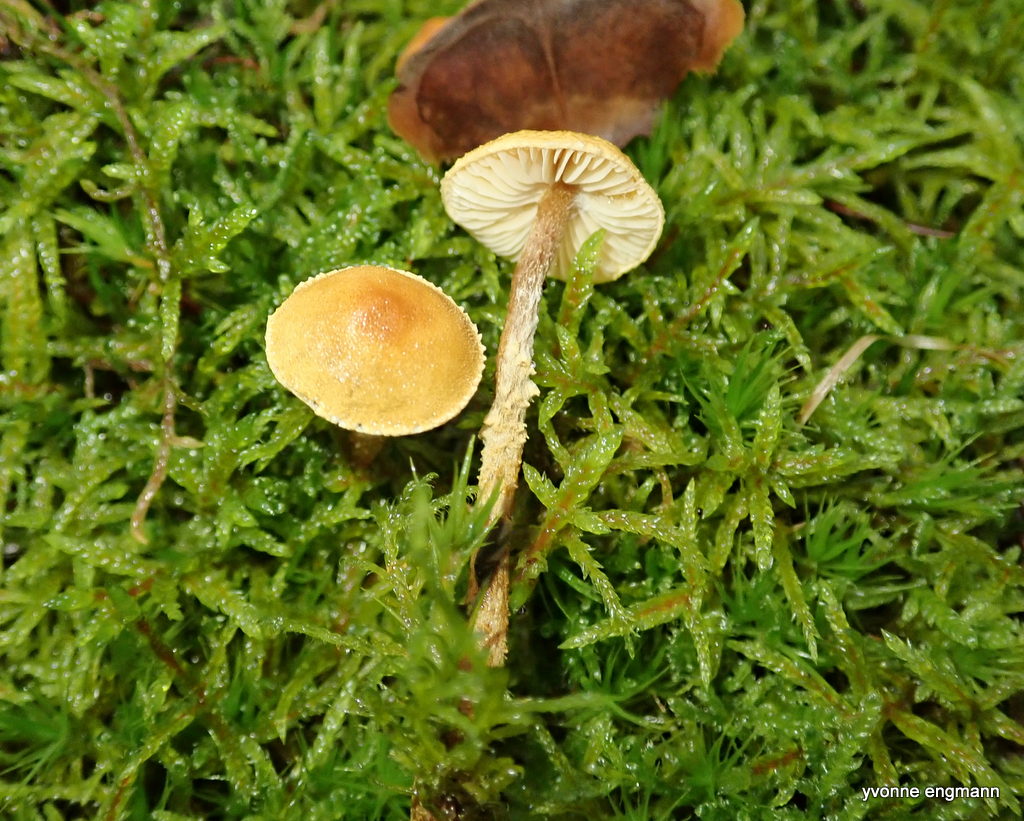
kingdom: Fungi
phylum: Basidiomycota
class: Agaricomycetes
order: Agaricales
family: Tricholomataceae
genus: Cystoderma
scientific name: Cystoderma amianthinum
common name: okkergul grynhat
